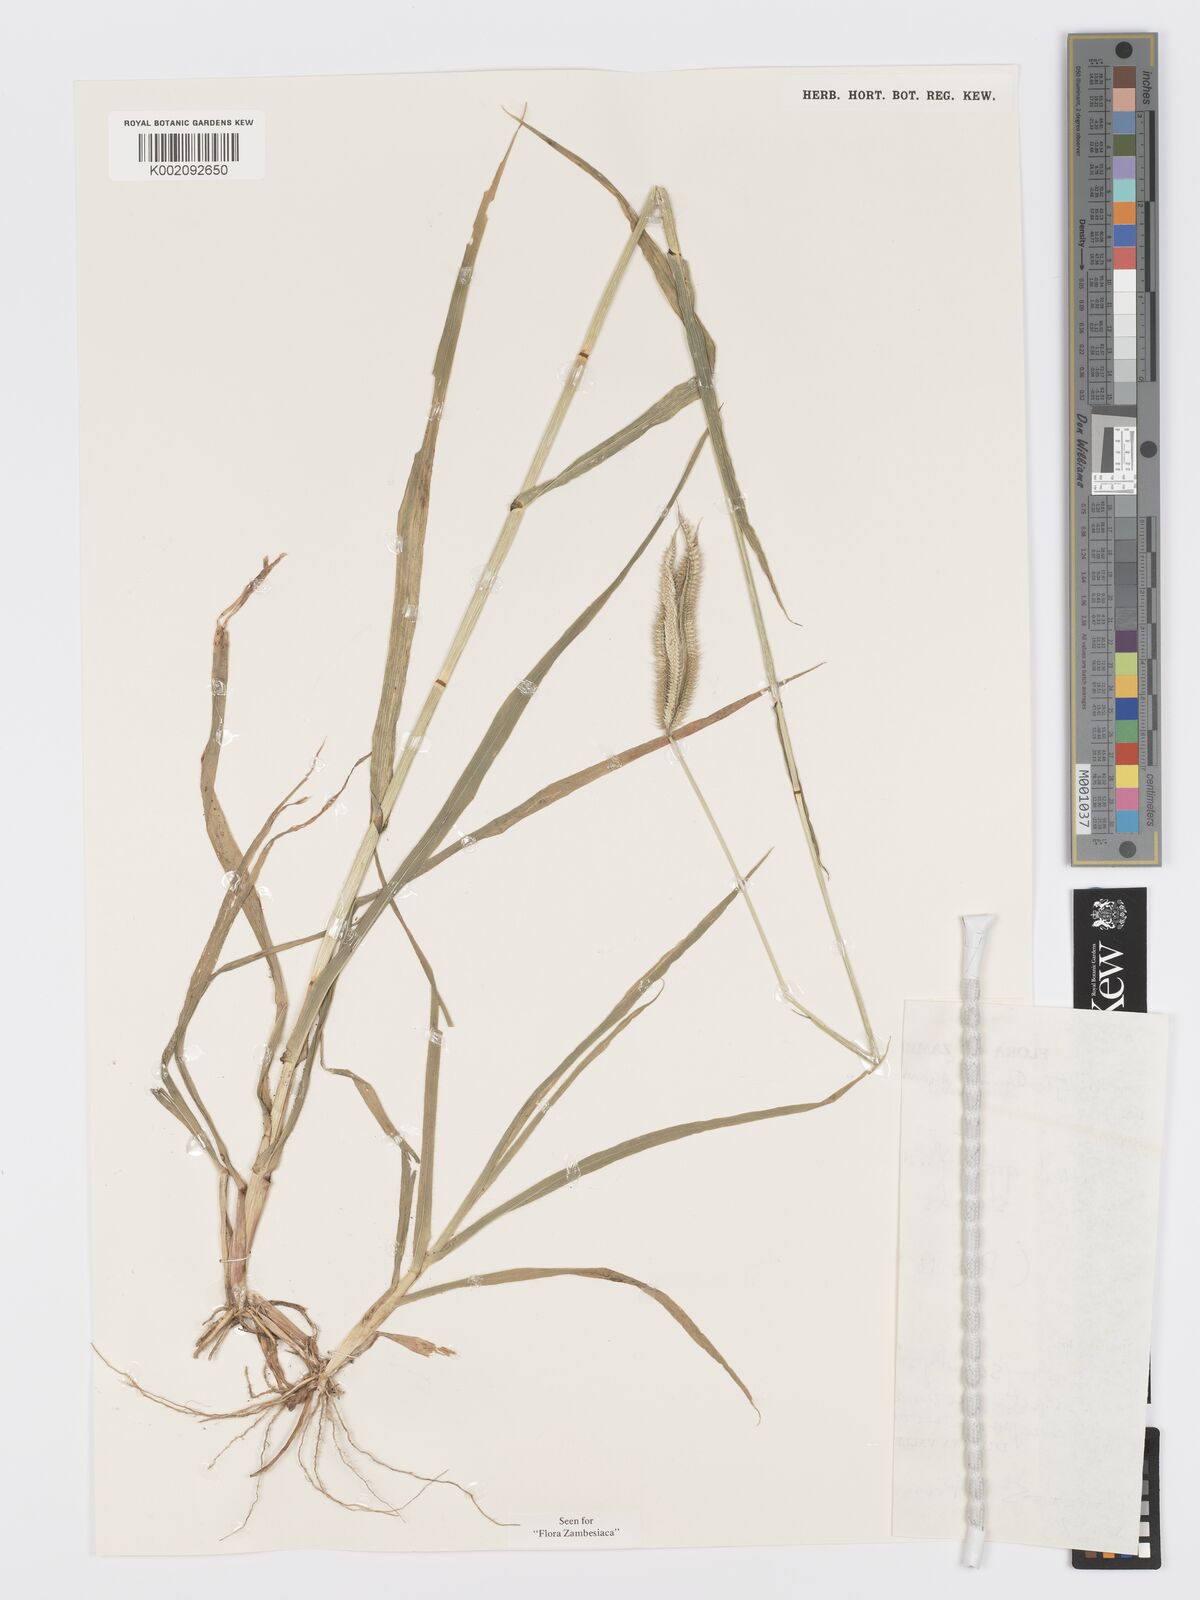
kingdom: Plantae
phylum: Tracheophyta
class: Liliopsida
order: Poales
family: Poaceae
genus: Dactyloctenium
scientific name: Dactyloctenium giganteum
